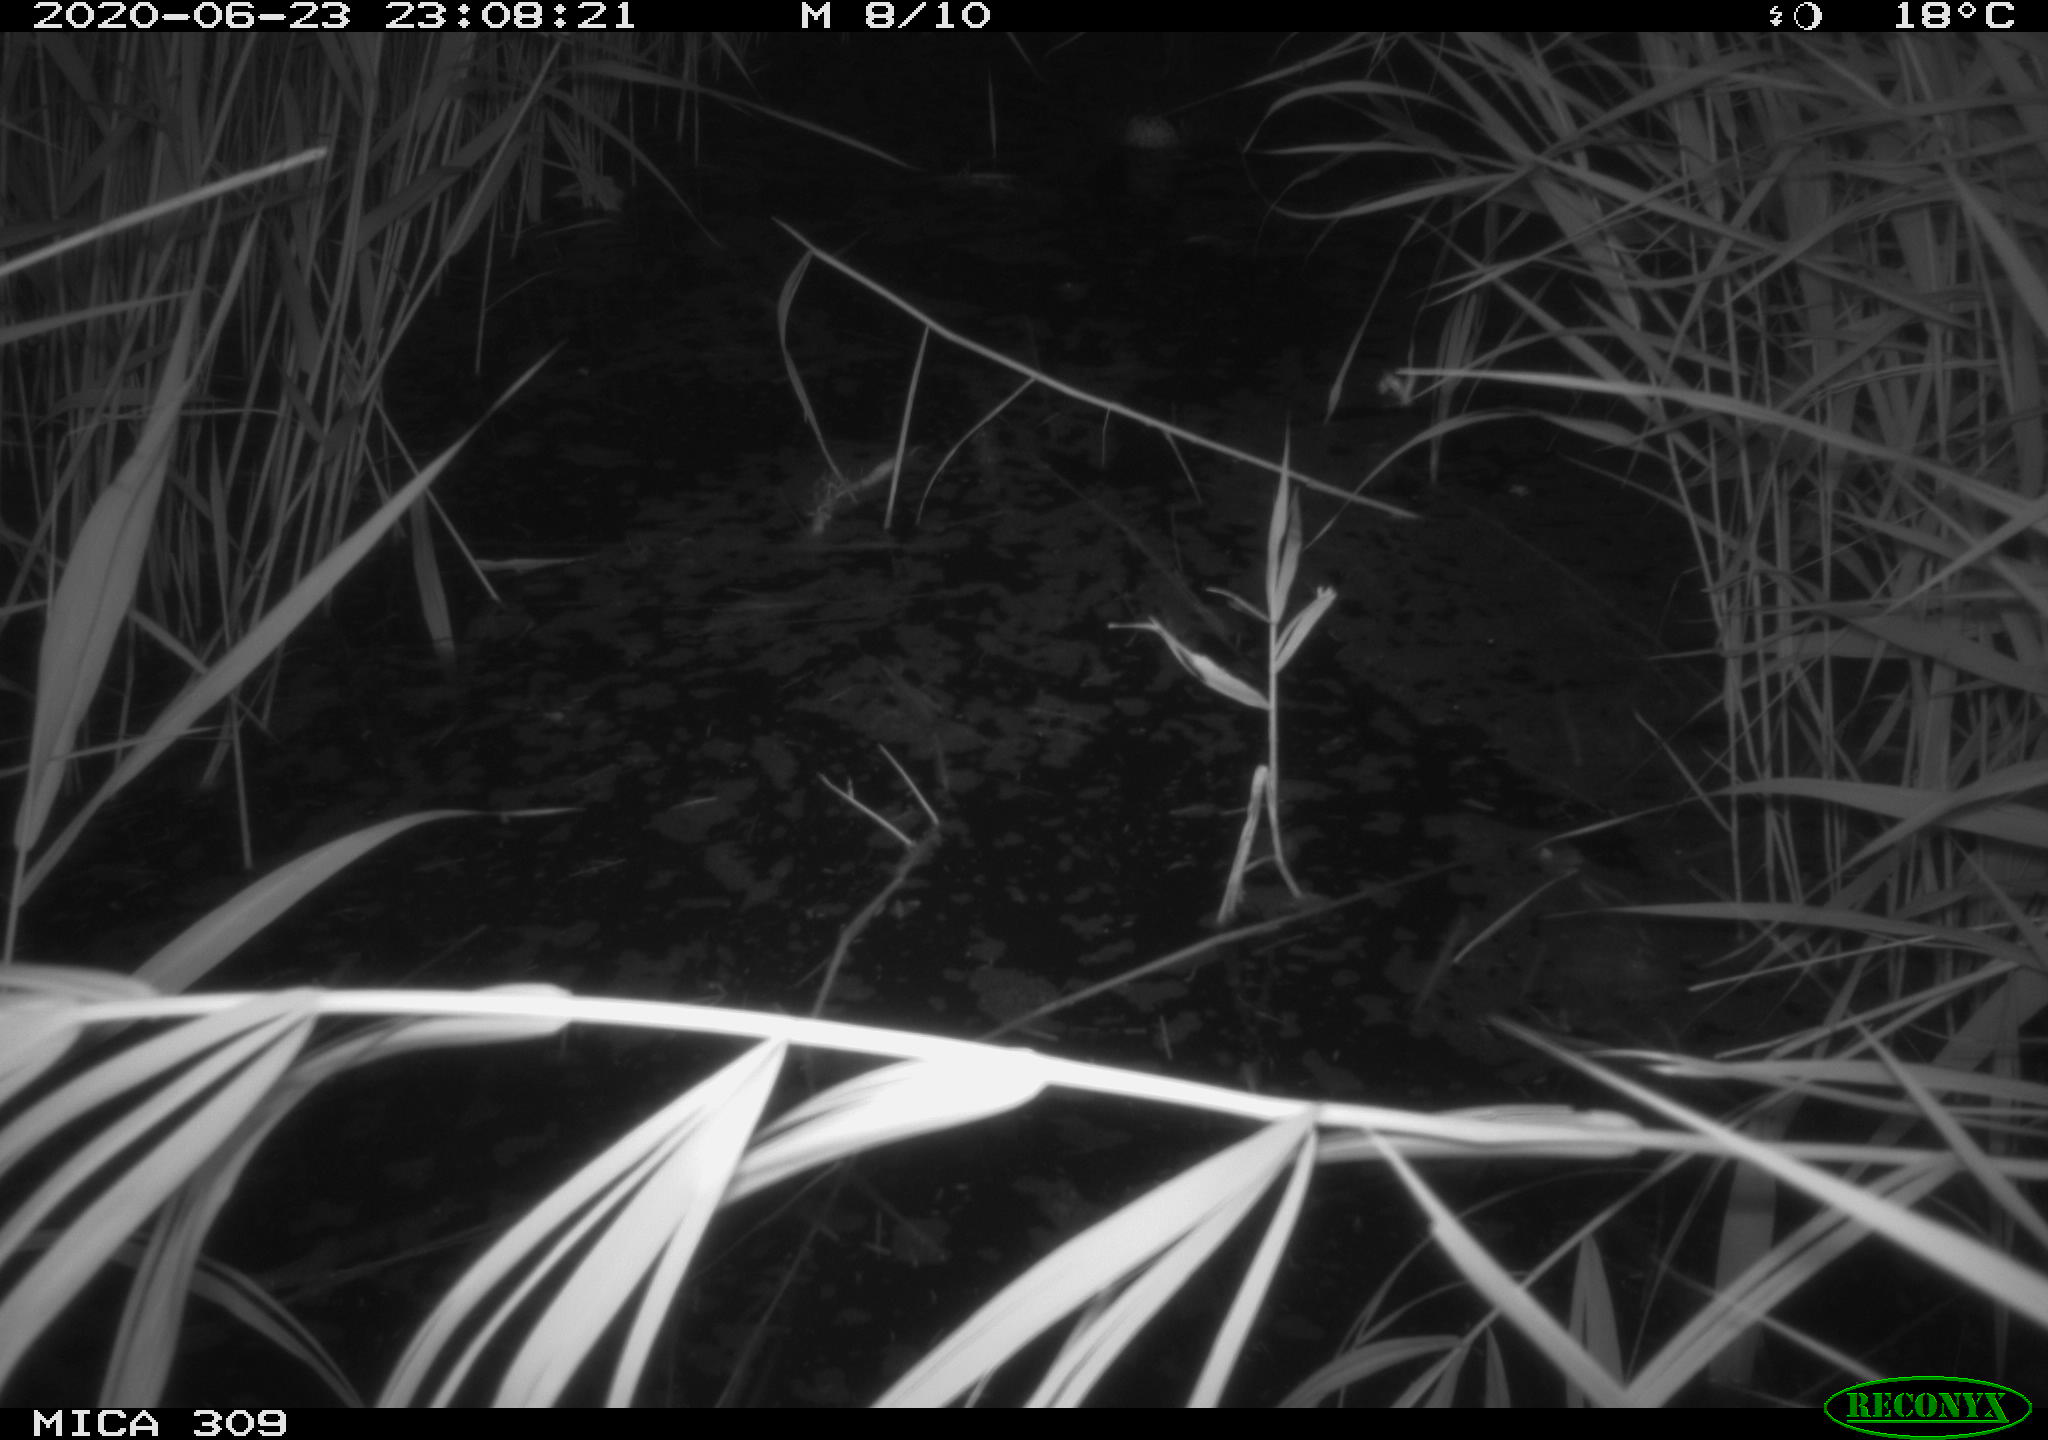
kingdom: Animalia
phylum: Chordata
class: Aves
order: Anseriformes
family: Anatidae
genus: Anas
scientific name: Anas platyrhynchos
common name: Mallard
